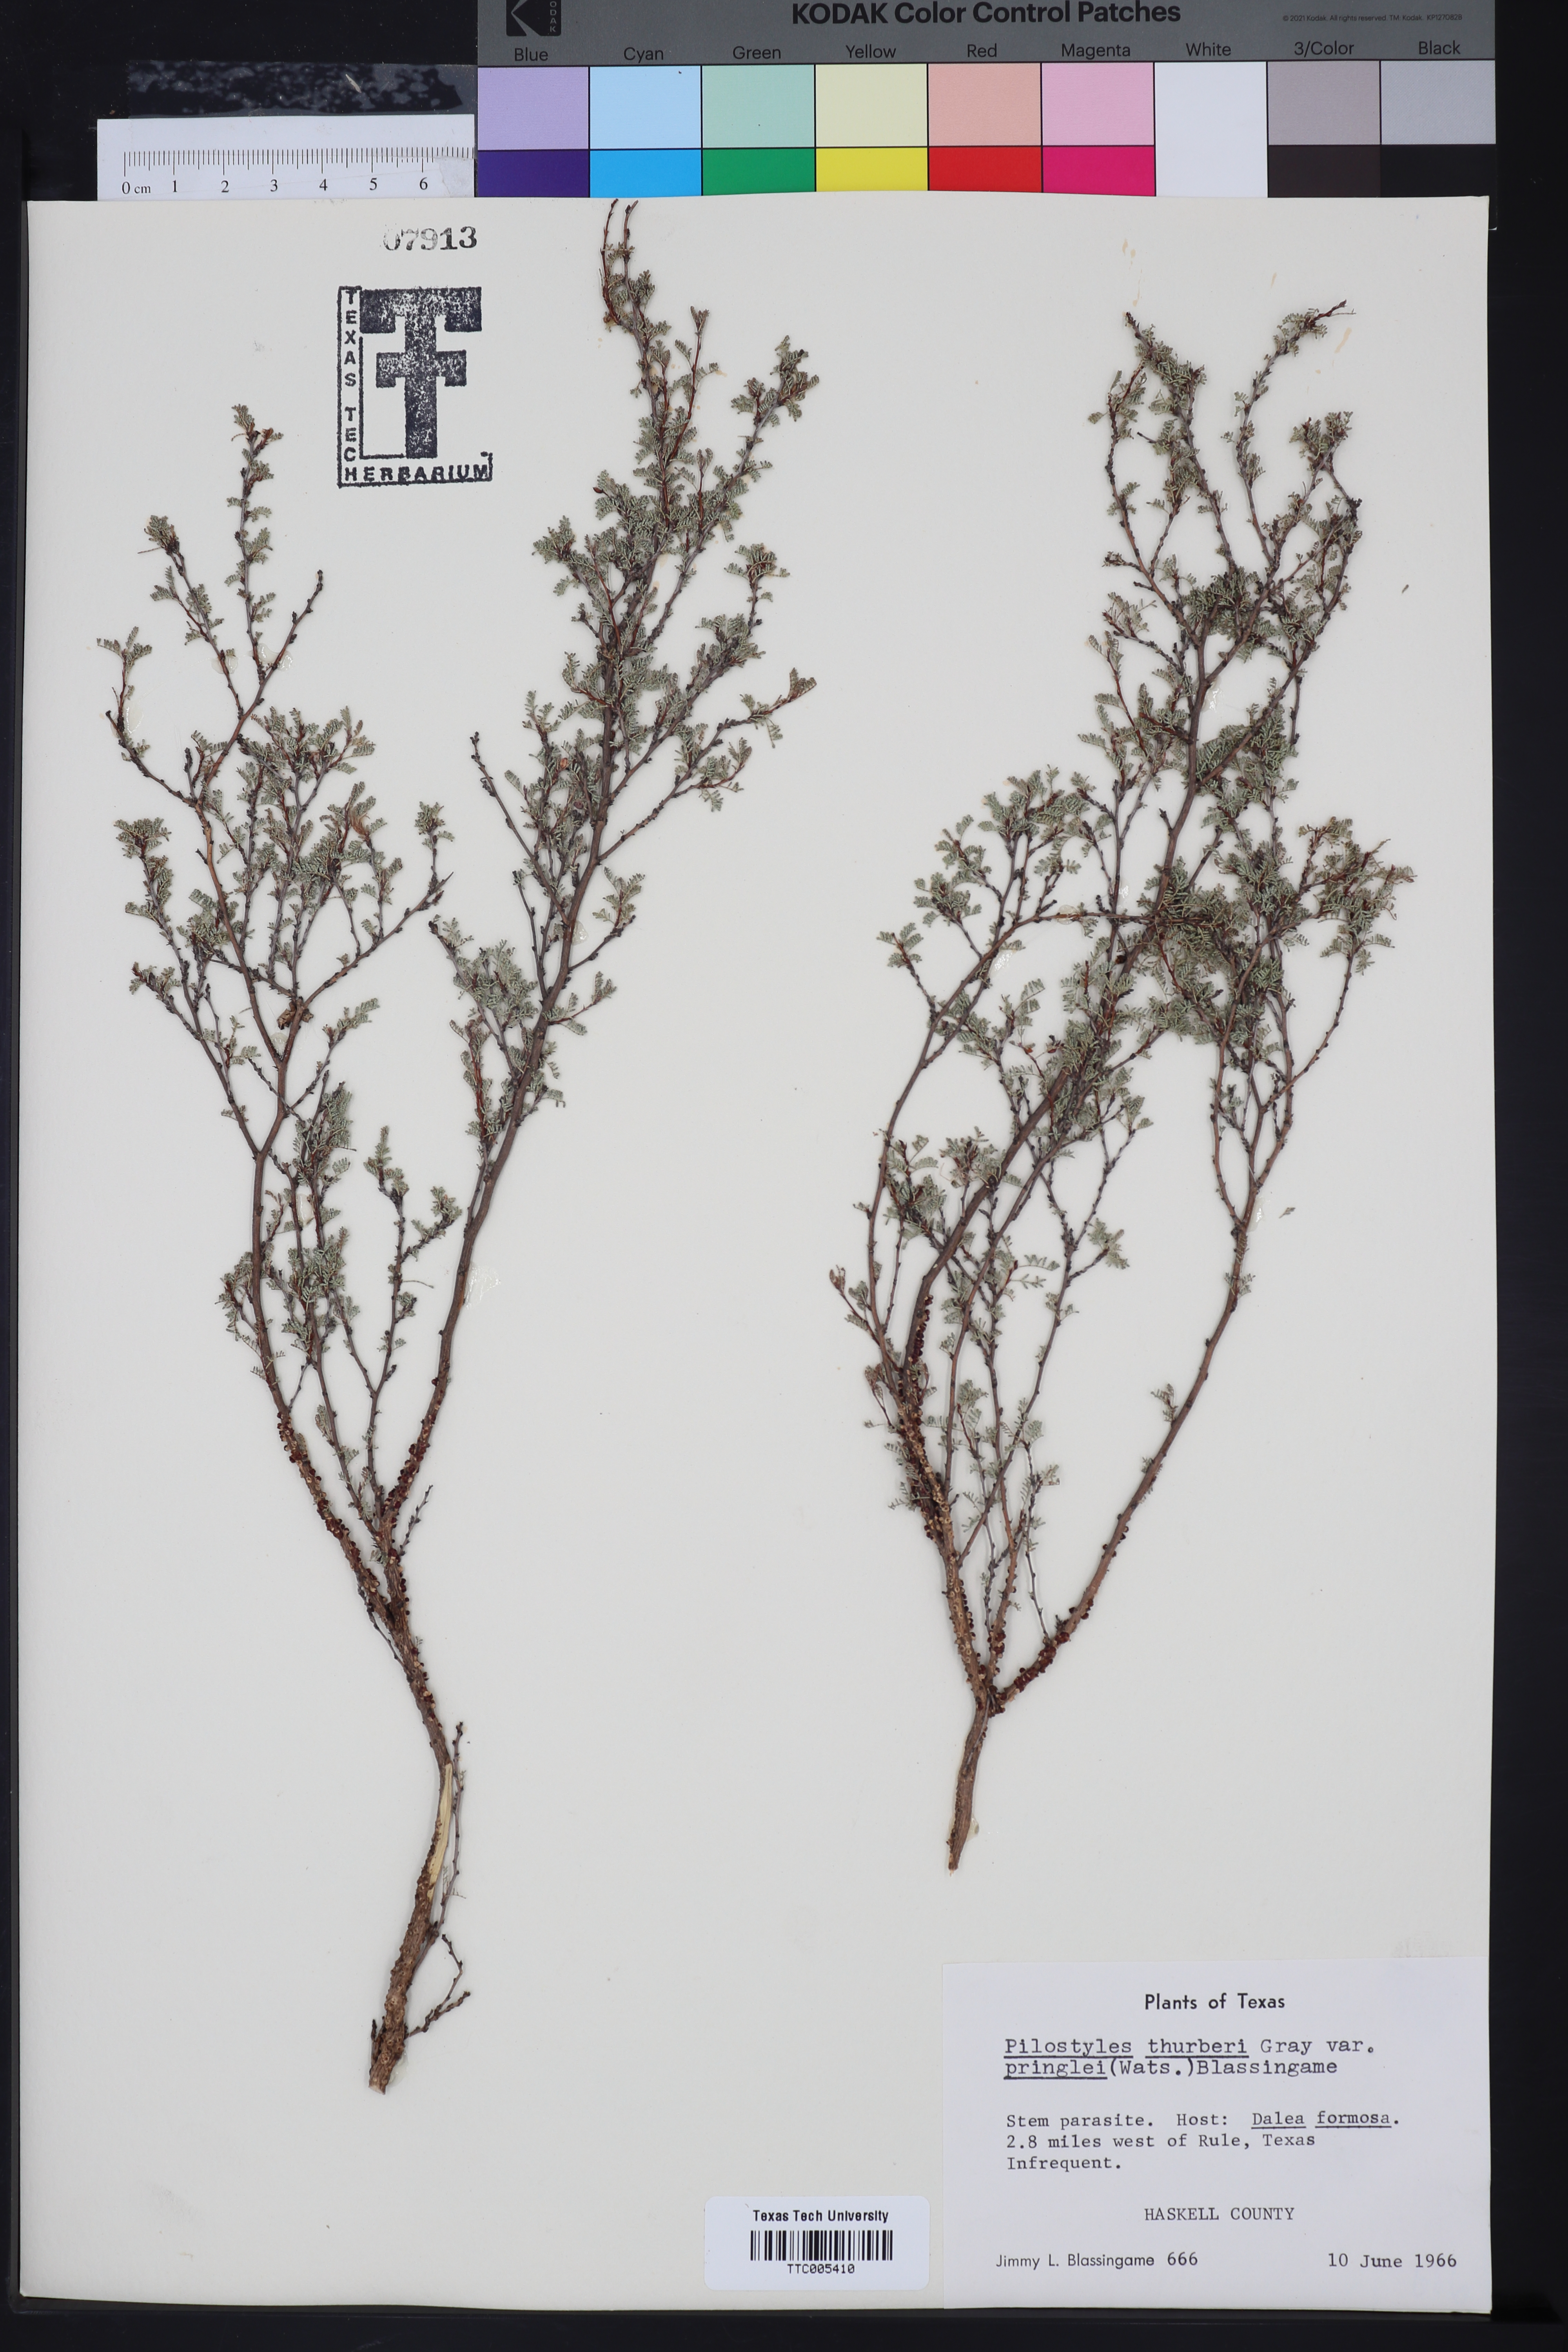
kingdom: Plantae
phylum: Tracheophyta
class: Magnoliopsida
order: Cucurbitales
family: Apodanthaceae
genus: Pilostyles
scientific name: Pilostyles thurberi
